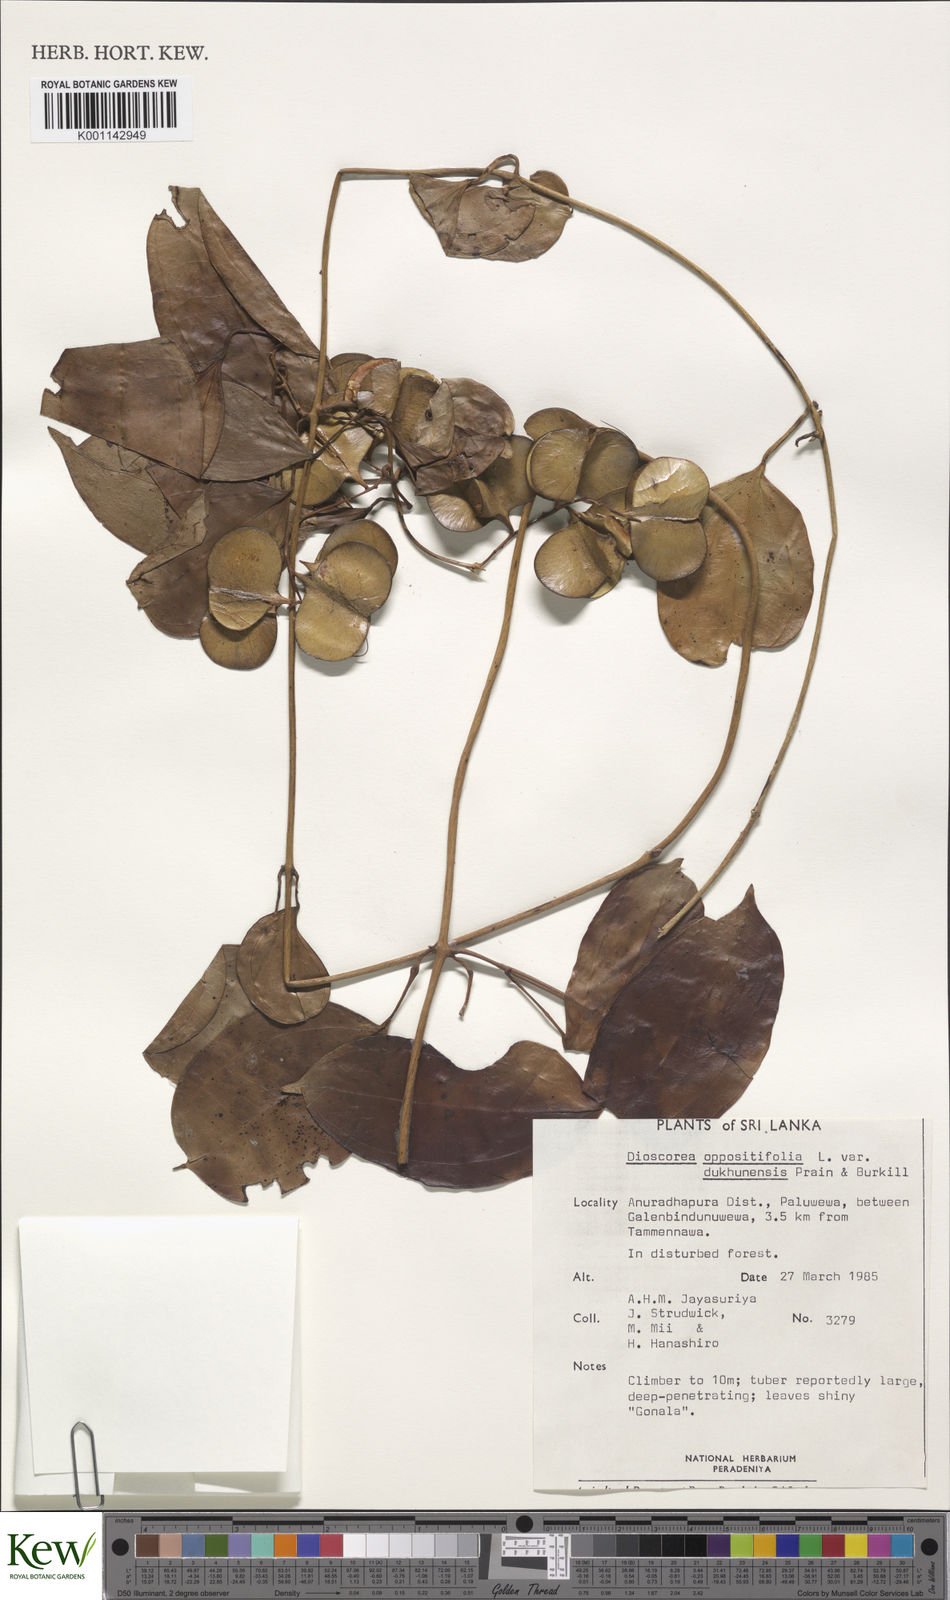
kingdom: Plantae
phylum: Tracheophyta
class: Liliopsida
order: Dioscoreales
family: Dioscoreaceae
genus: Dioscorea
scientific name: Dioscorea oppositifolia
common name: Chinese yam
